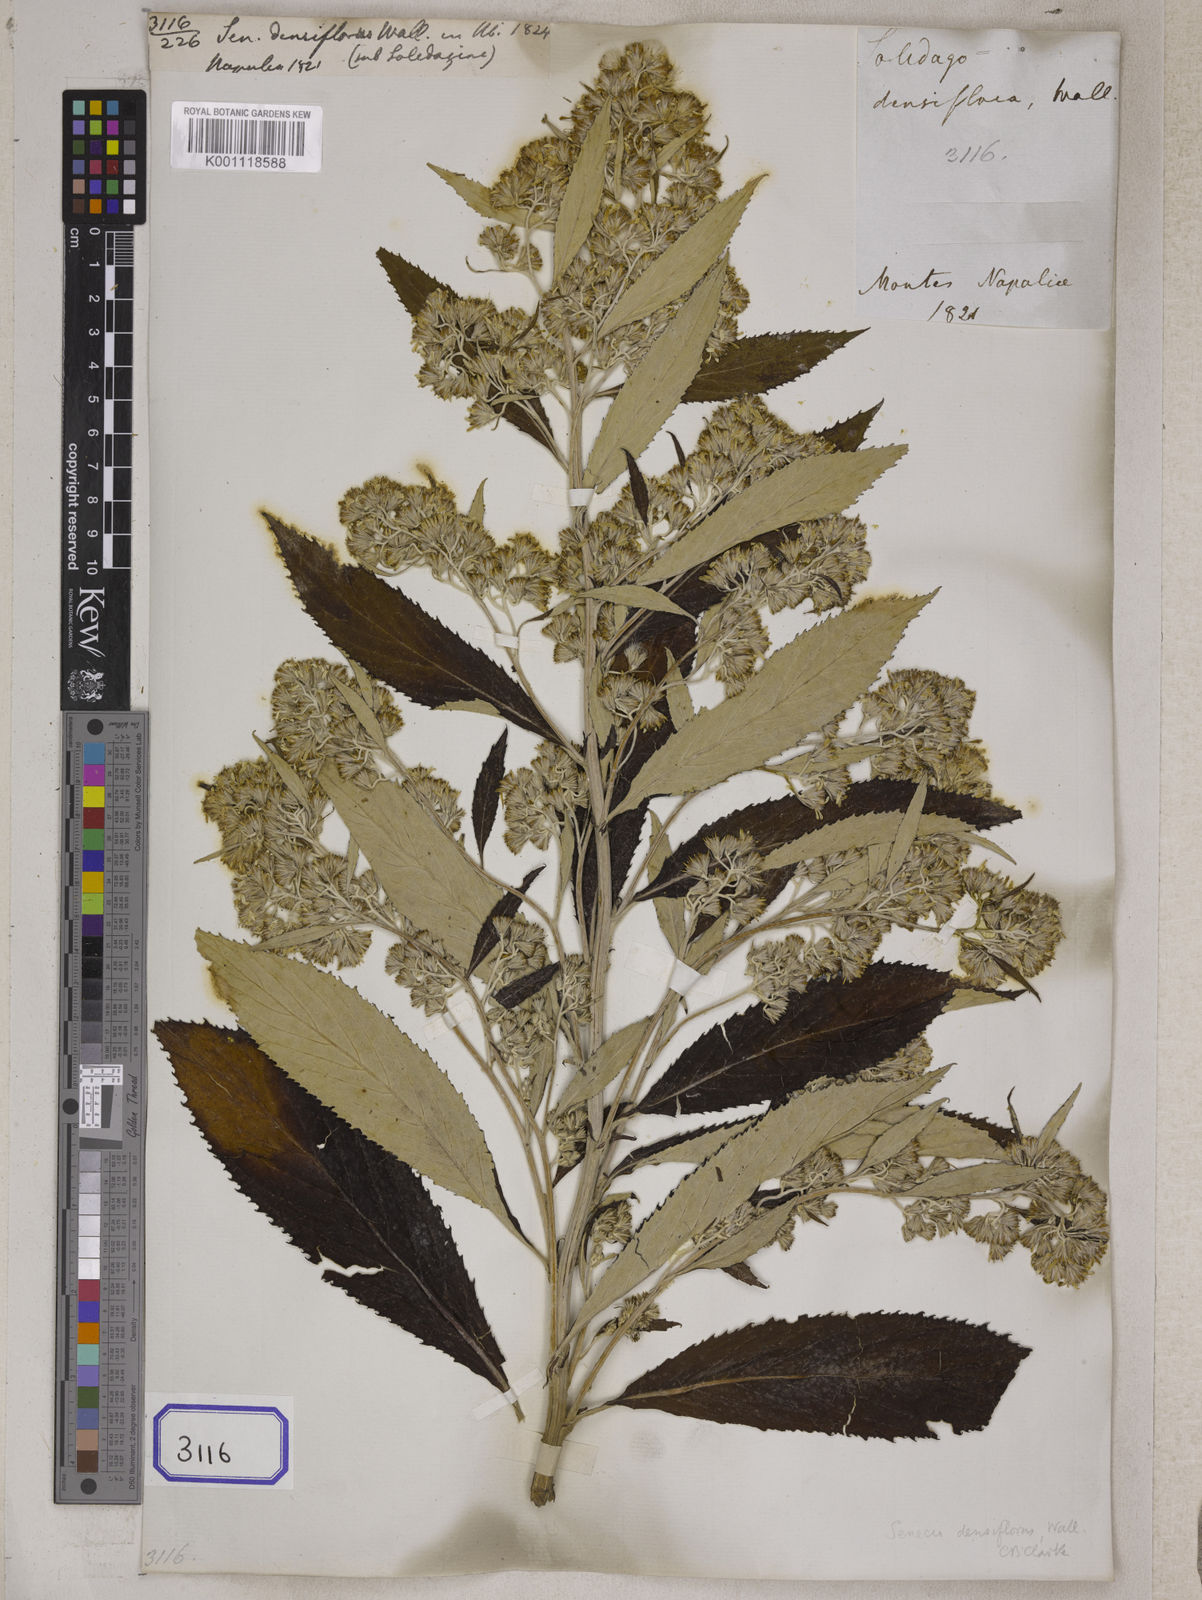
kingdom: Plantae
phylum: Tracheophyta
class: Magnoliopsida
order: Asterales
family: Asteraceae
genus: Synotis
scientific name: Synotis cappa
